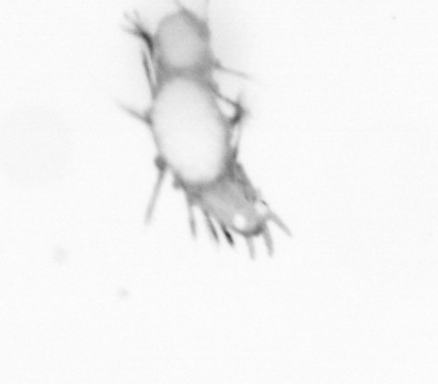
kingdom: Animalia
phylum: Annelida
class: Polychaeta
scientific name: Polychaeta
